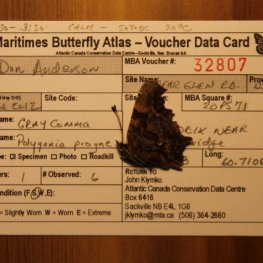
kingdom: Animalia
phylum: Arthropoda
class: Insecta
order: Lepidoptera
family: Nymphalidae
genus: Polygonia
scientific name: Polygonia progne
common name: Gray Comma
